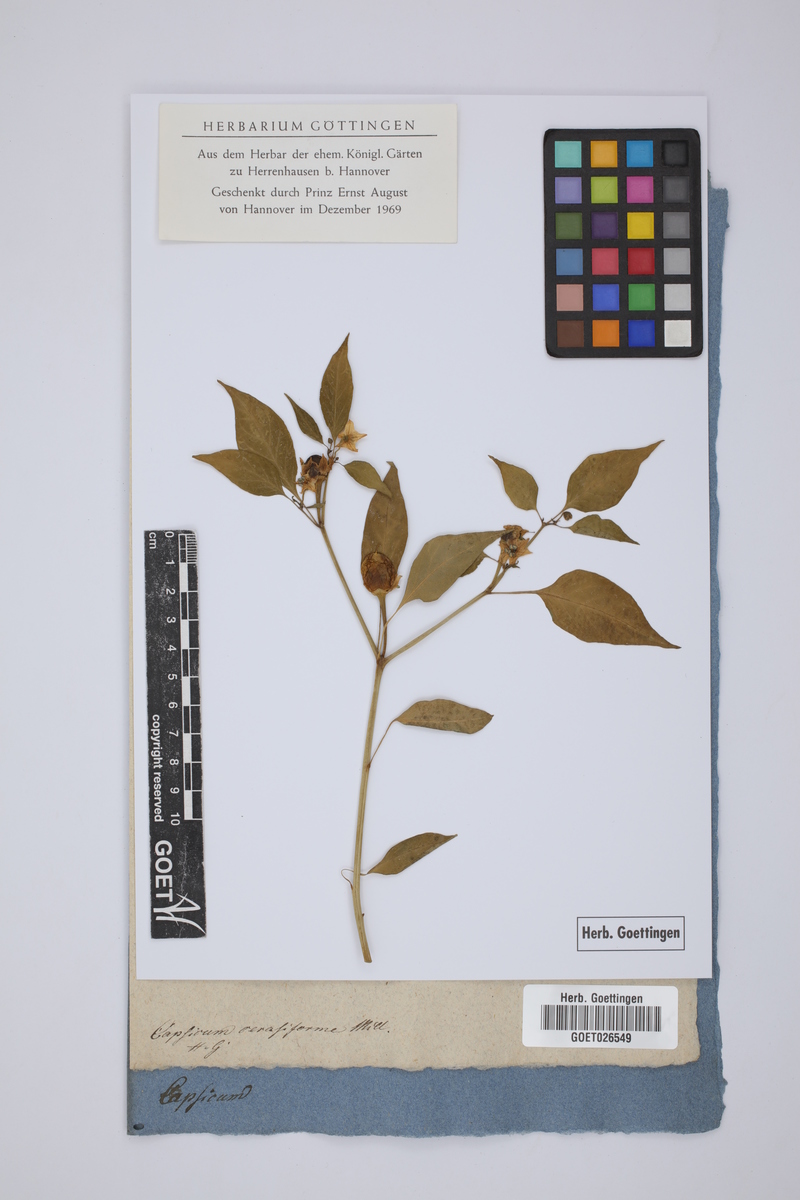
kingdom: Plantae
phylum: Tracheophyta
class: Magnoliopsida
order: Solanales
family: Solanaceae
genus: Capsicum
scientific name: Capsicum annuum
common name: Sweet pepper
